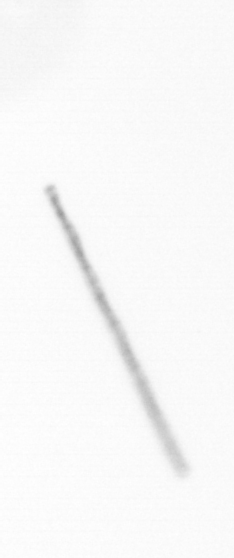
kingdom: Chromista
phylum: Ochrophyta
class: Bacillariophyceae
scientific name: Bacillariophyceae
